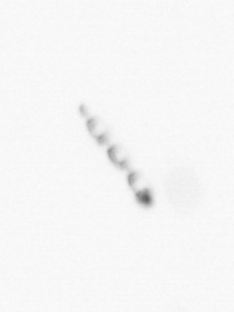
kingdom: Chromista
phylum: Ochrophyta
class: Bacillariophyceae
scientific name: Bacillariophyceae
